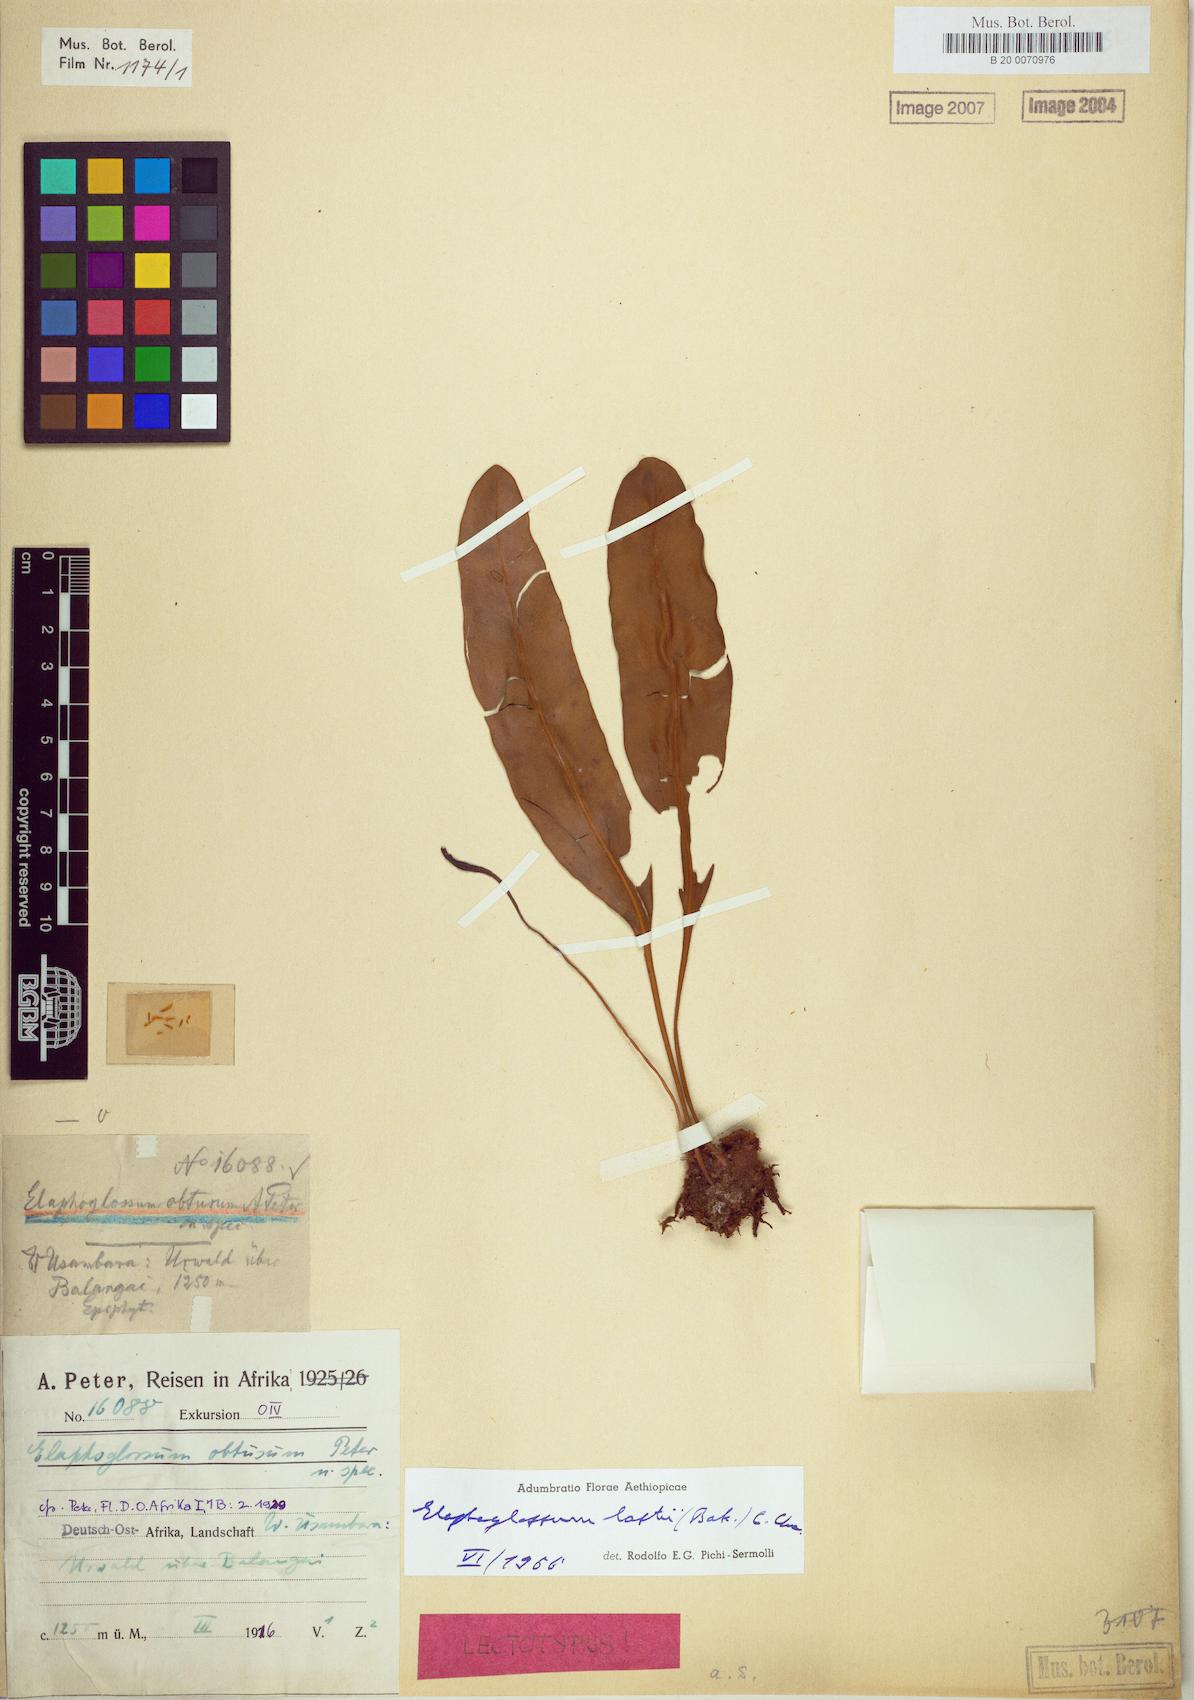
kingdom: Plantae
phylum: Tracheophyta
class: Polypodiopsida
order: Polypodiales
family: Dryopteridaceae
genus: Elaphoglossum
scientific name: Elaphoglossum lastii
